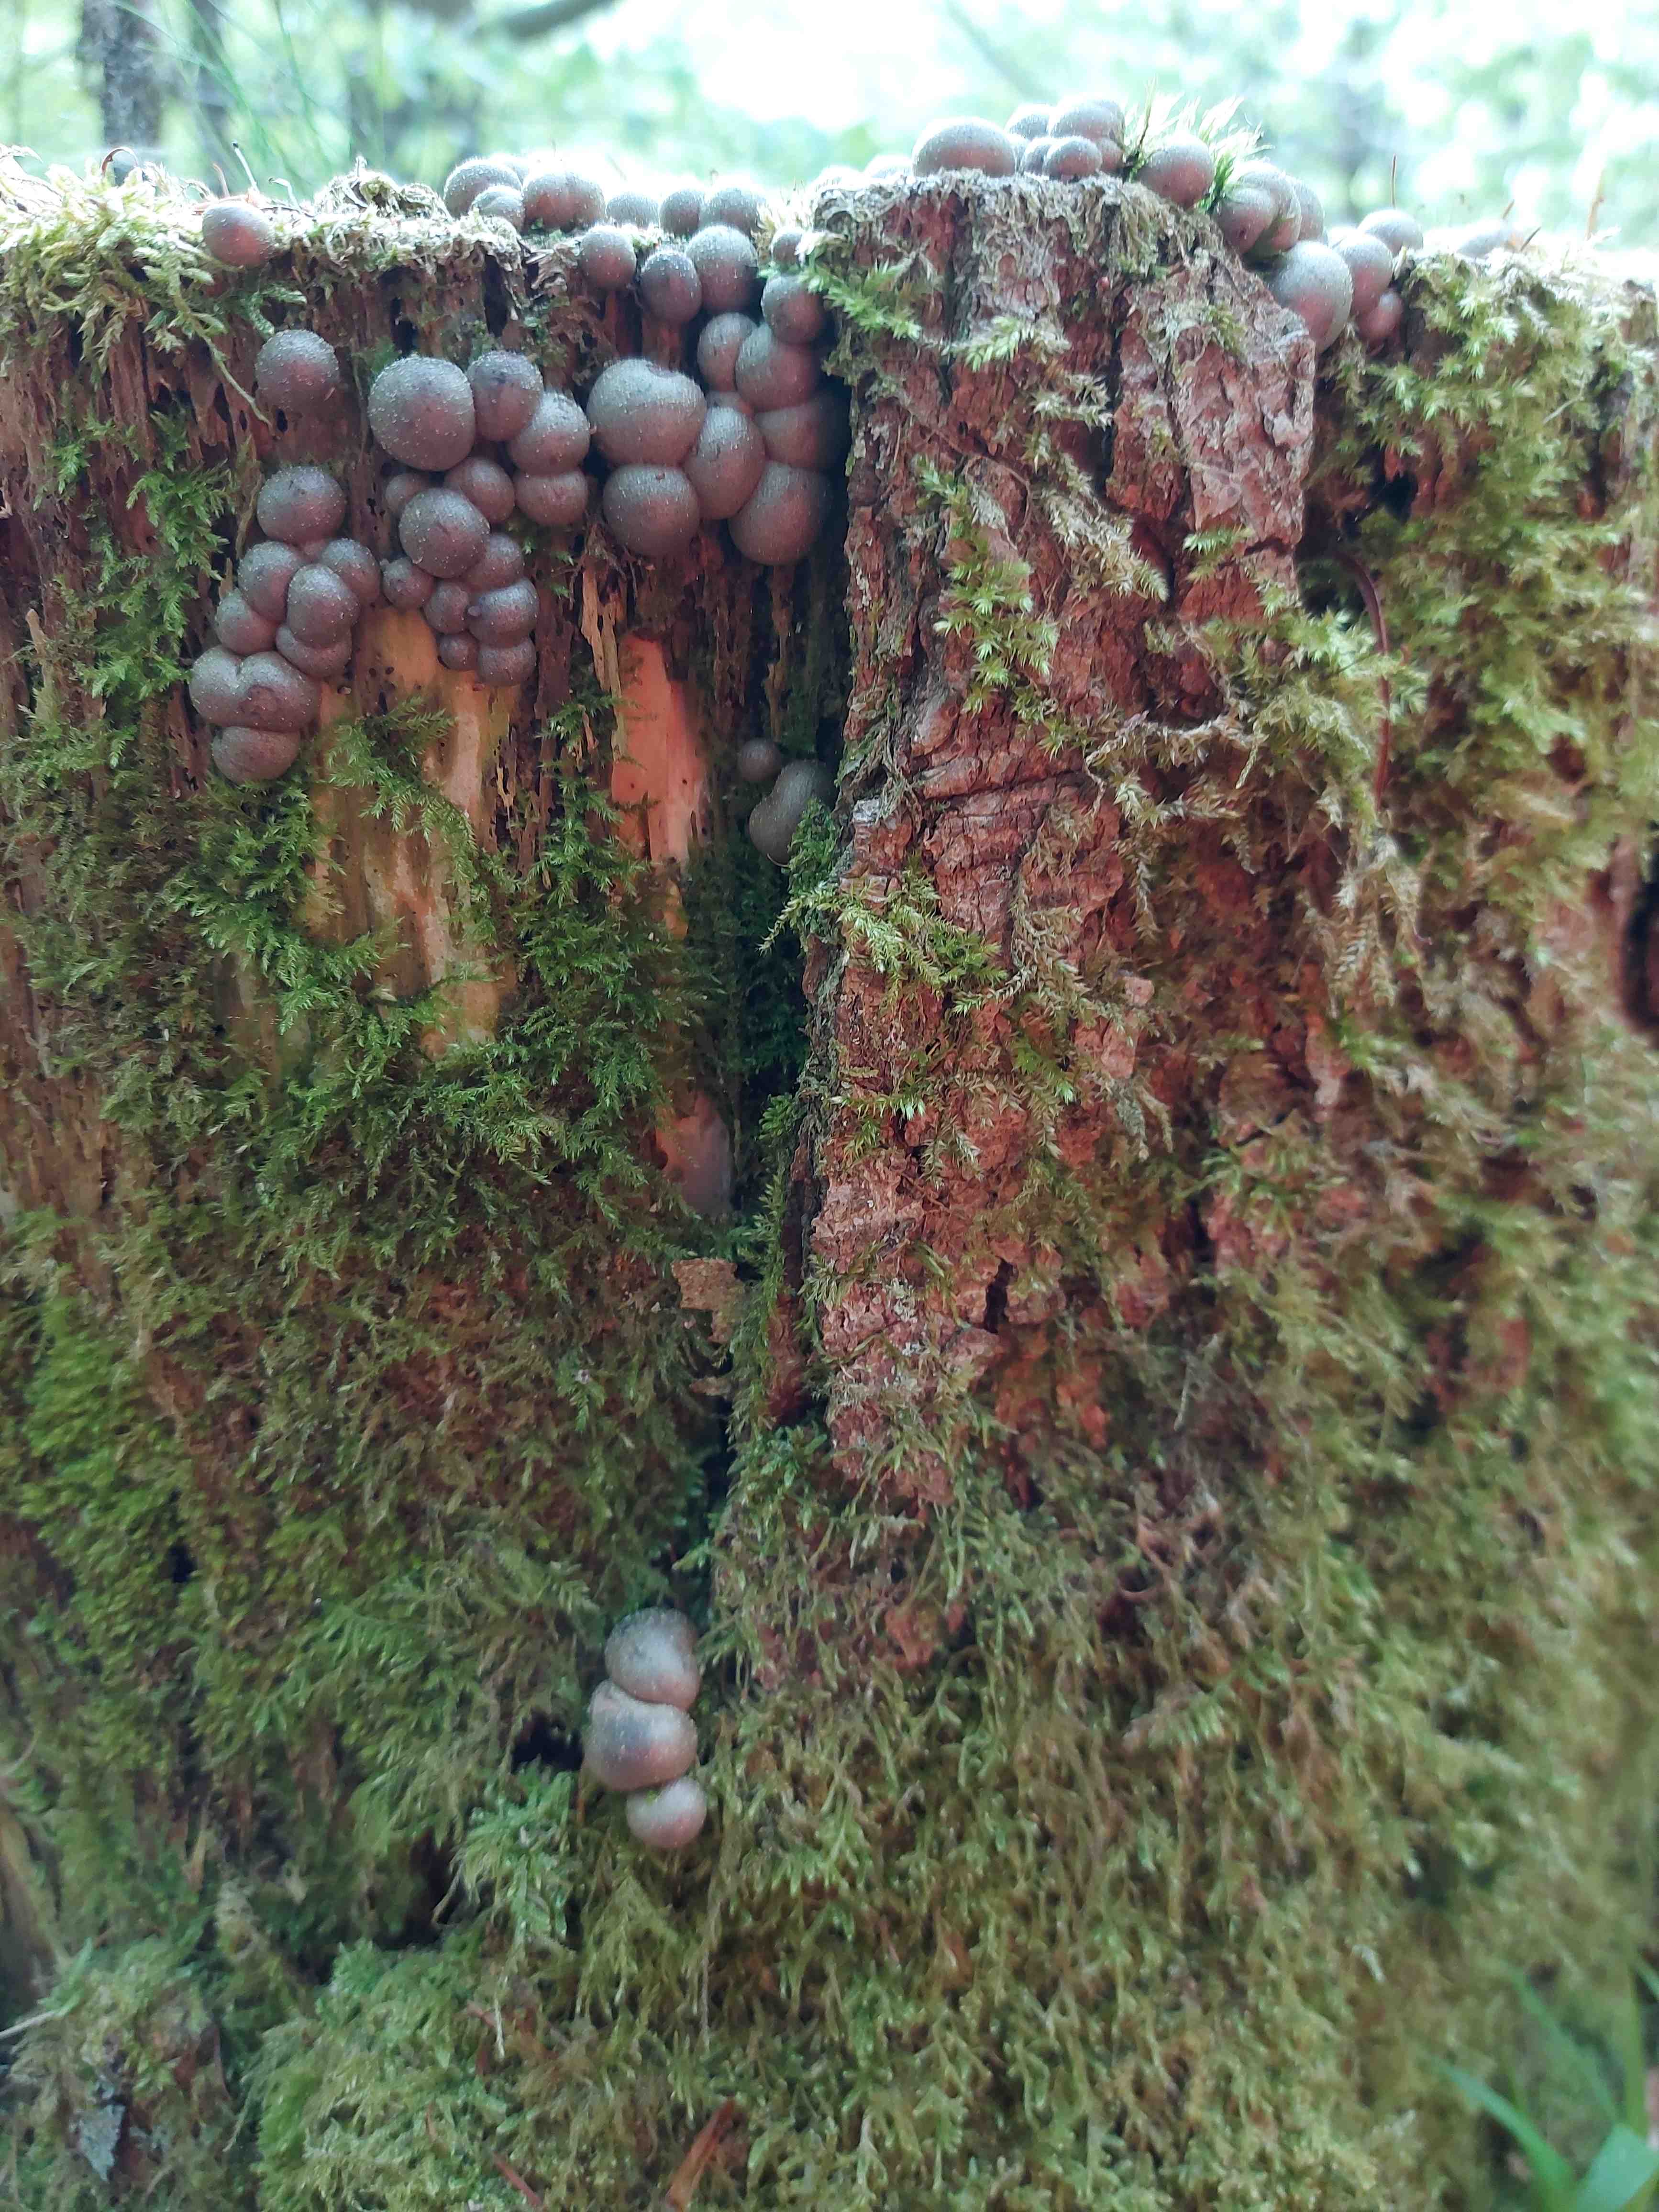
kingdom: Protozoa
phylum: Mycetozoa
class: Myxomycetes
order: Cribrariales
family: Tubiferaceae
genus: Lycogala
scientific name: Lycogala epidendrum
